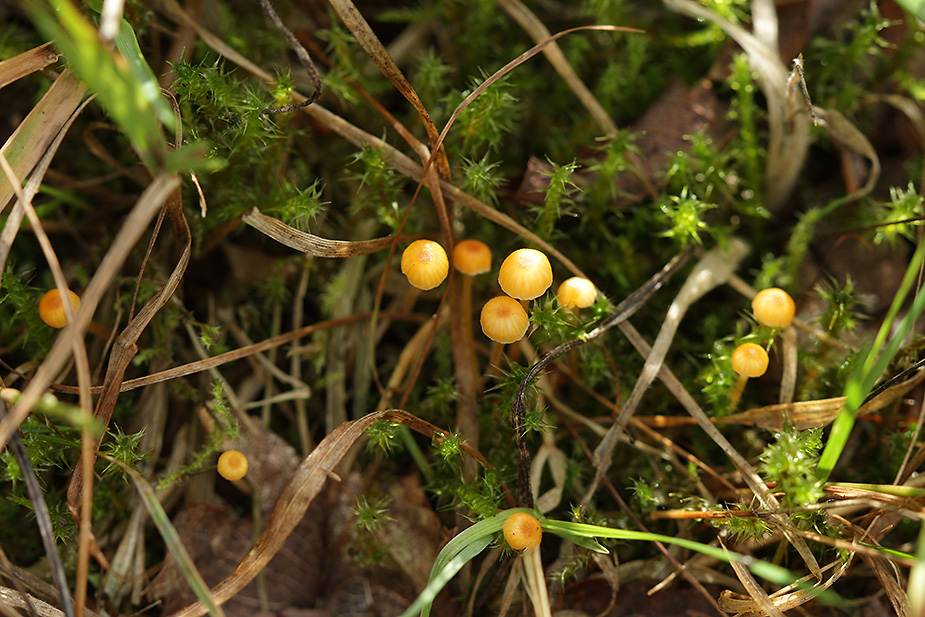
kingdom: Fungi
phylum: Basidiomycota
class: Agaricomycetes
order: Hymenochaetales
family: Rickenellaceae
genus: Rickenella
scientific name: Rickenella fibula
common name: orange mosnavlehat
